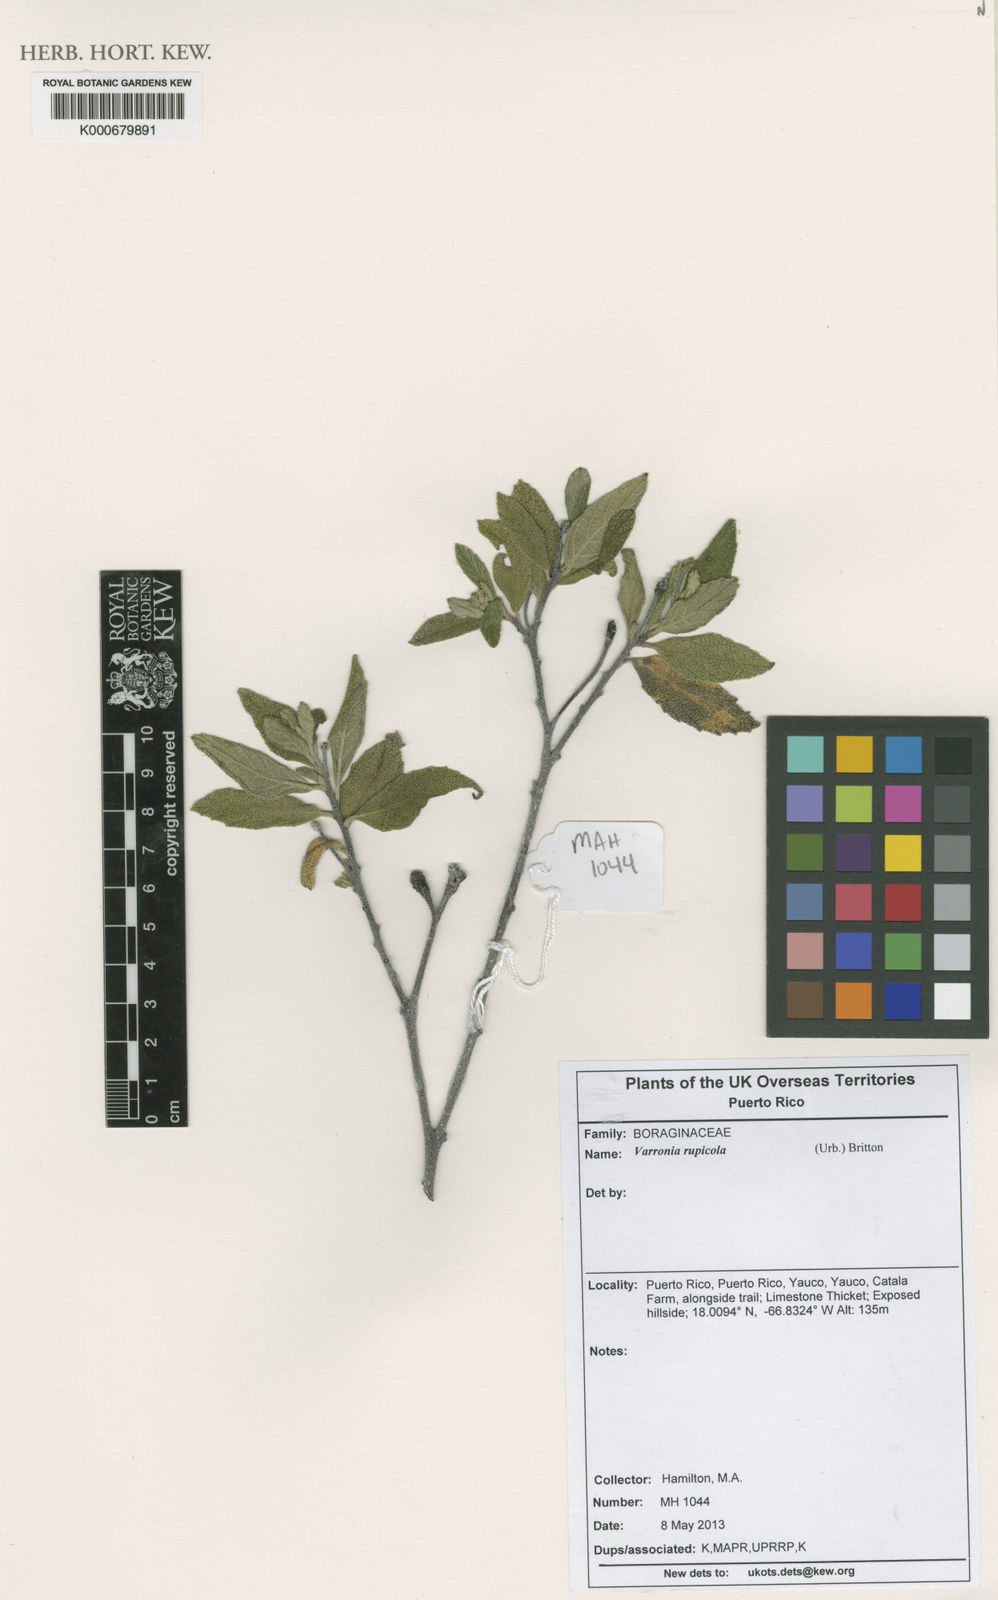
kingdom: Plantae
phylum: Tracheophyta
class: Magnoliopsida
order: Boraginales
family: Cordiaceae
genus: Varronia
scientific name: Varronia rupicola
